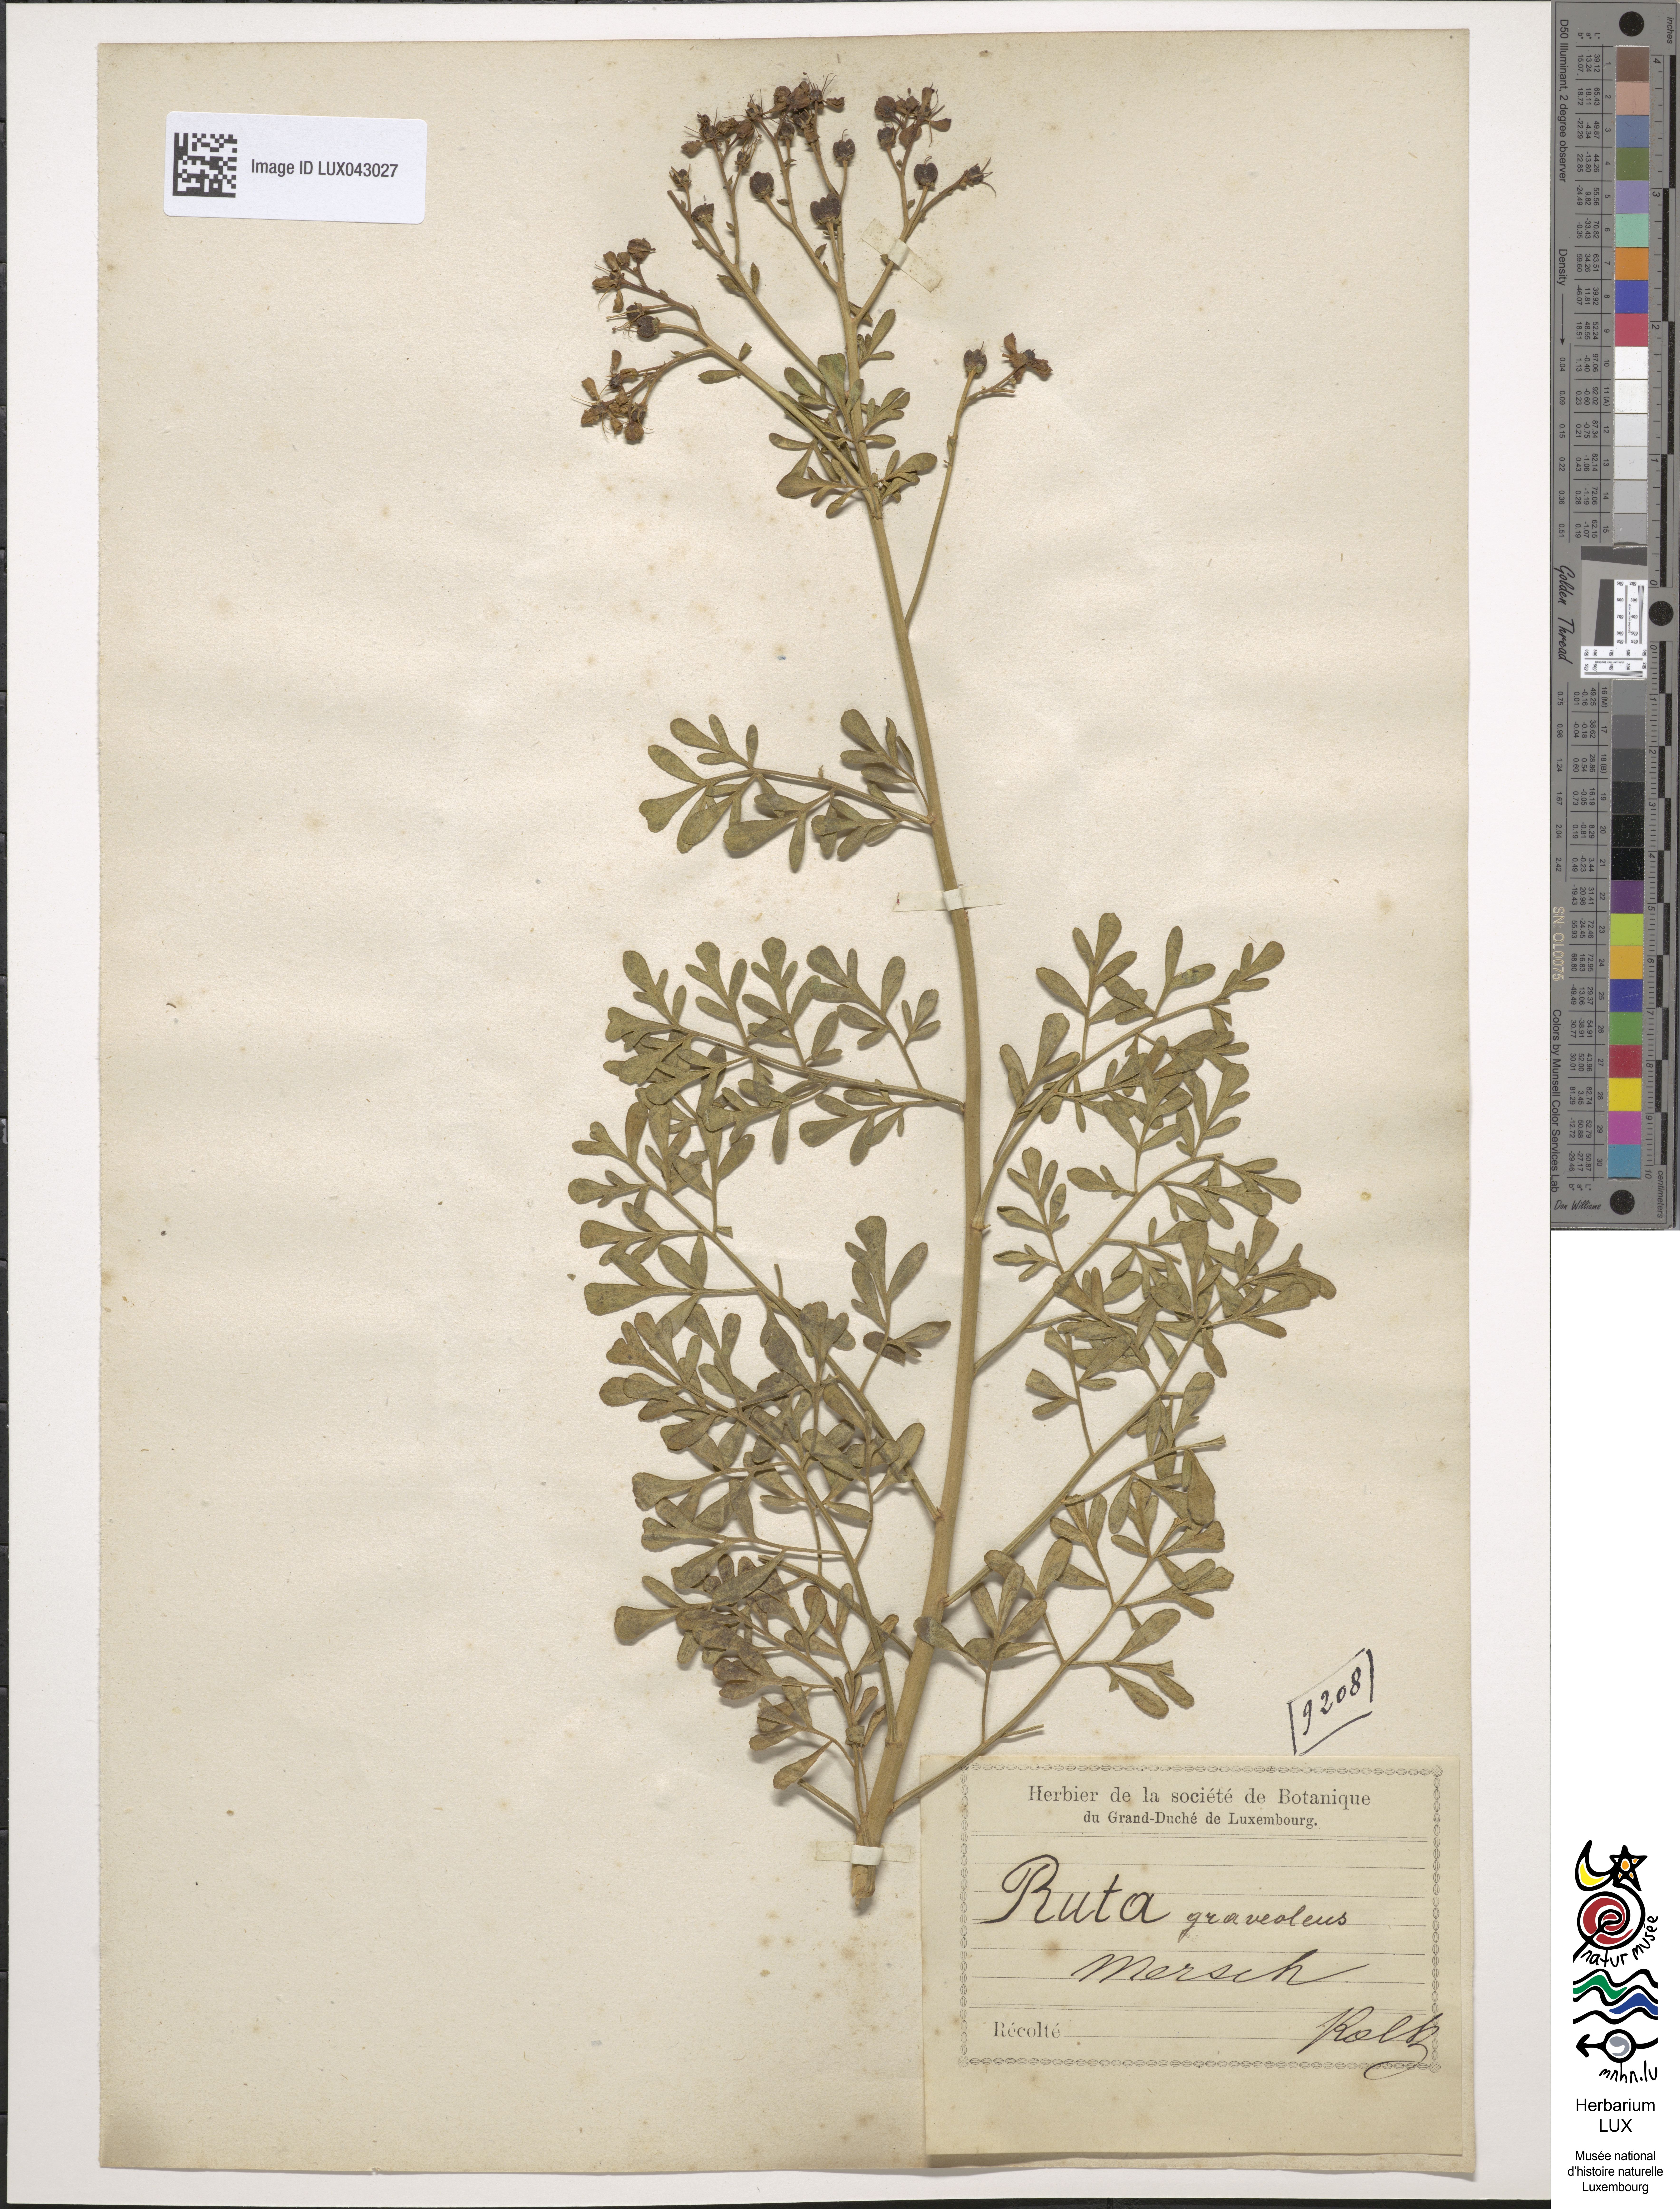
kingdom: Plantae
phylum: Tracheophyta
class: Magnoliopsida
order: Sapindales
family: Rutaceae
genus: Ruta
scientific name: Ruta graveolens
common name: Common rue
